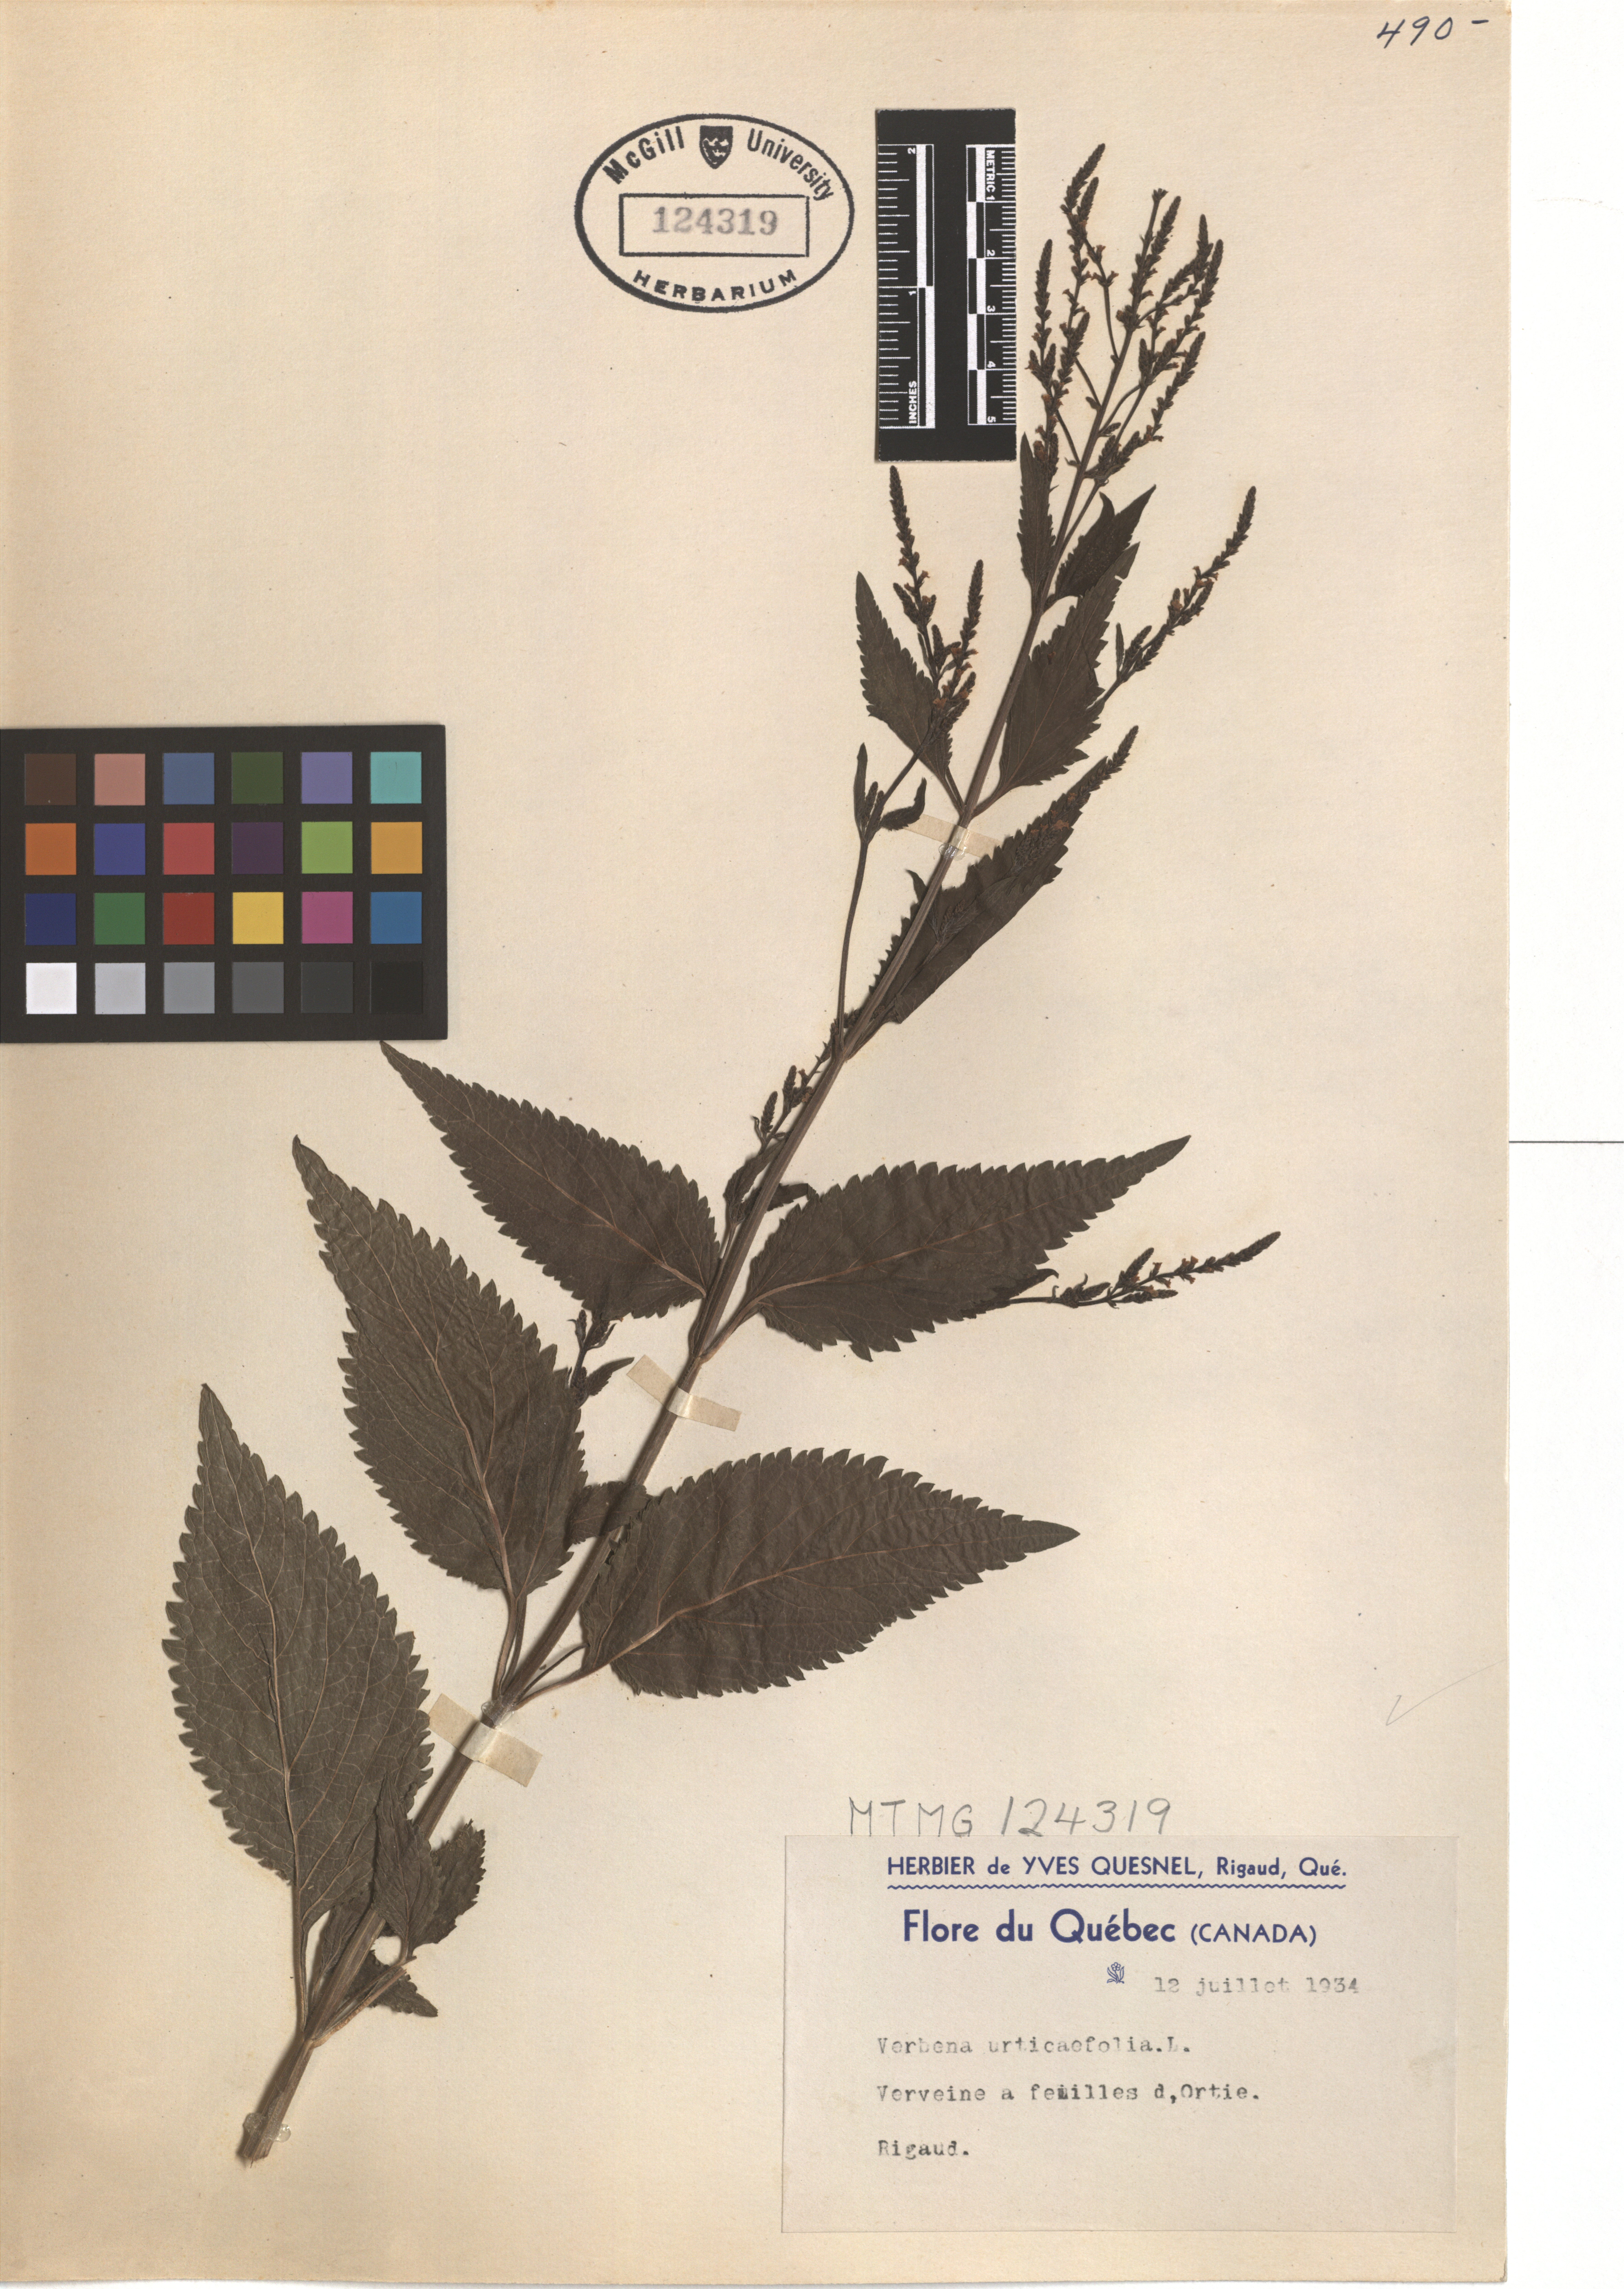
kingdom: Plantae
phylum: Tracheophyta
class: Magnoliopsida
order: Lamiales
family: Verbenaceae
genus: Verbena
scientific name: Verbena urticifolia
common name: Nettle-leaved vervain
